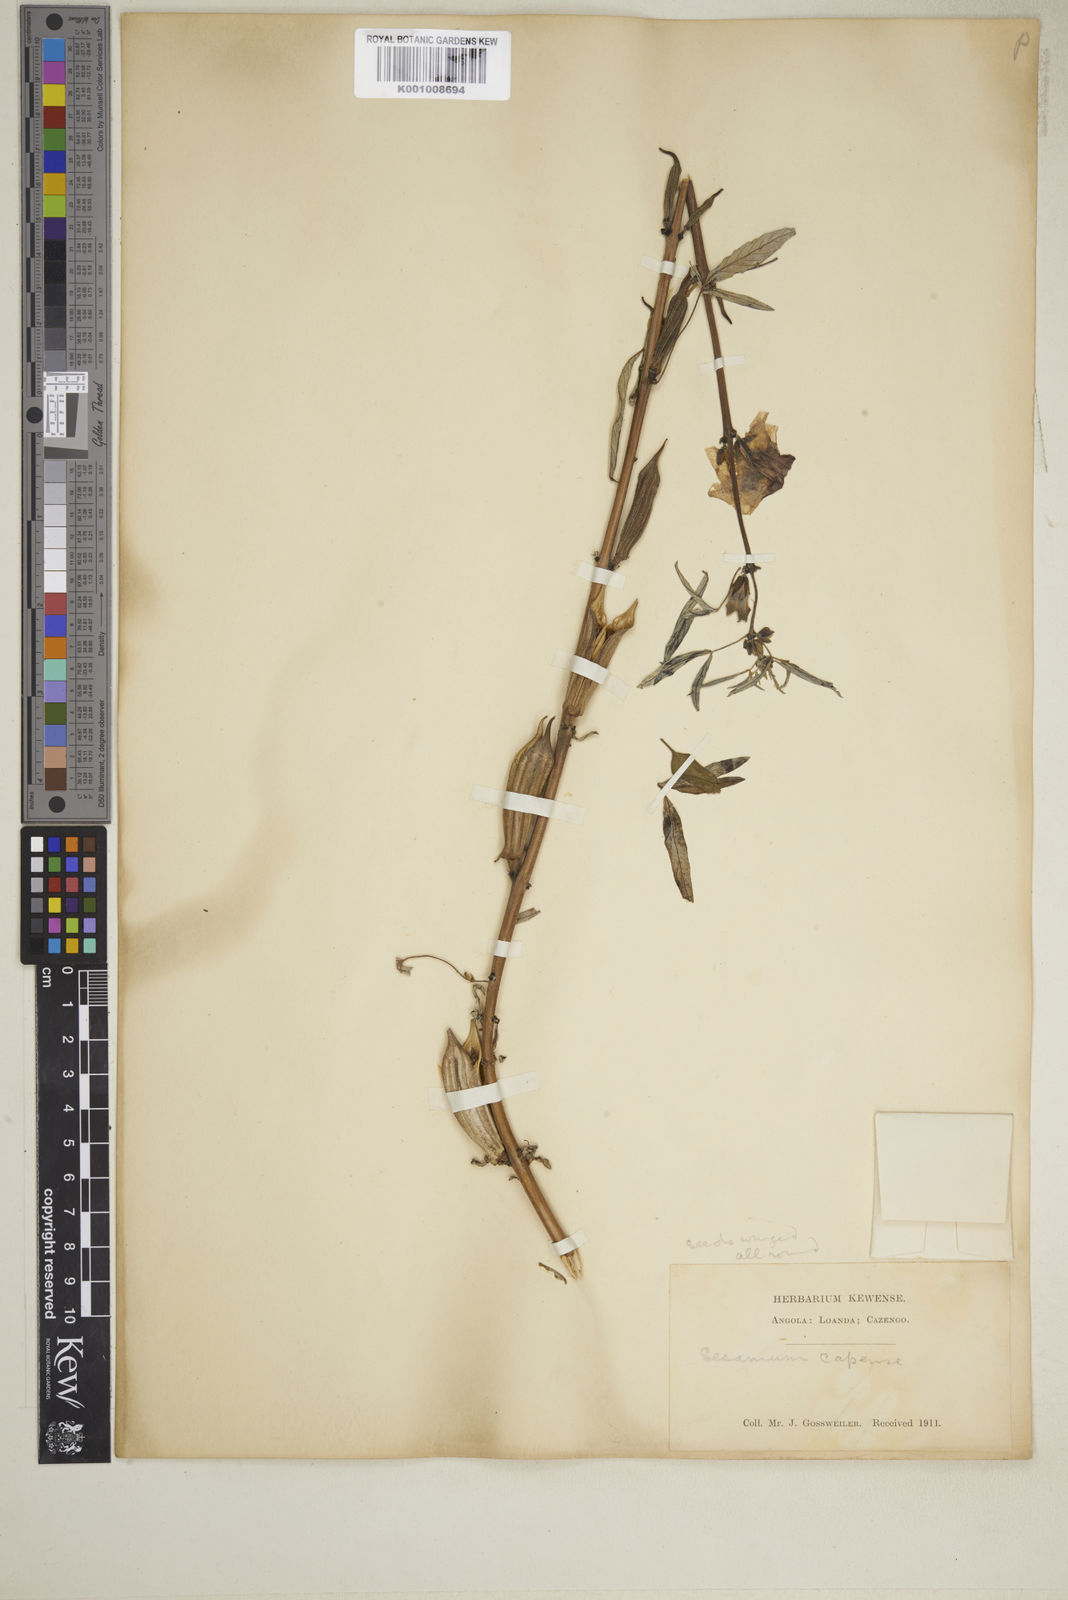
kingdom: Plantae
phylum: Tracheophyta
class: Magnoliopsida
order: Lamiales
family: Pedaliaceae
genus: Sesamum
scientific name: Sesamum capense
